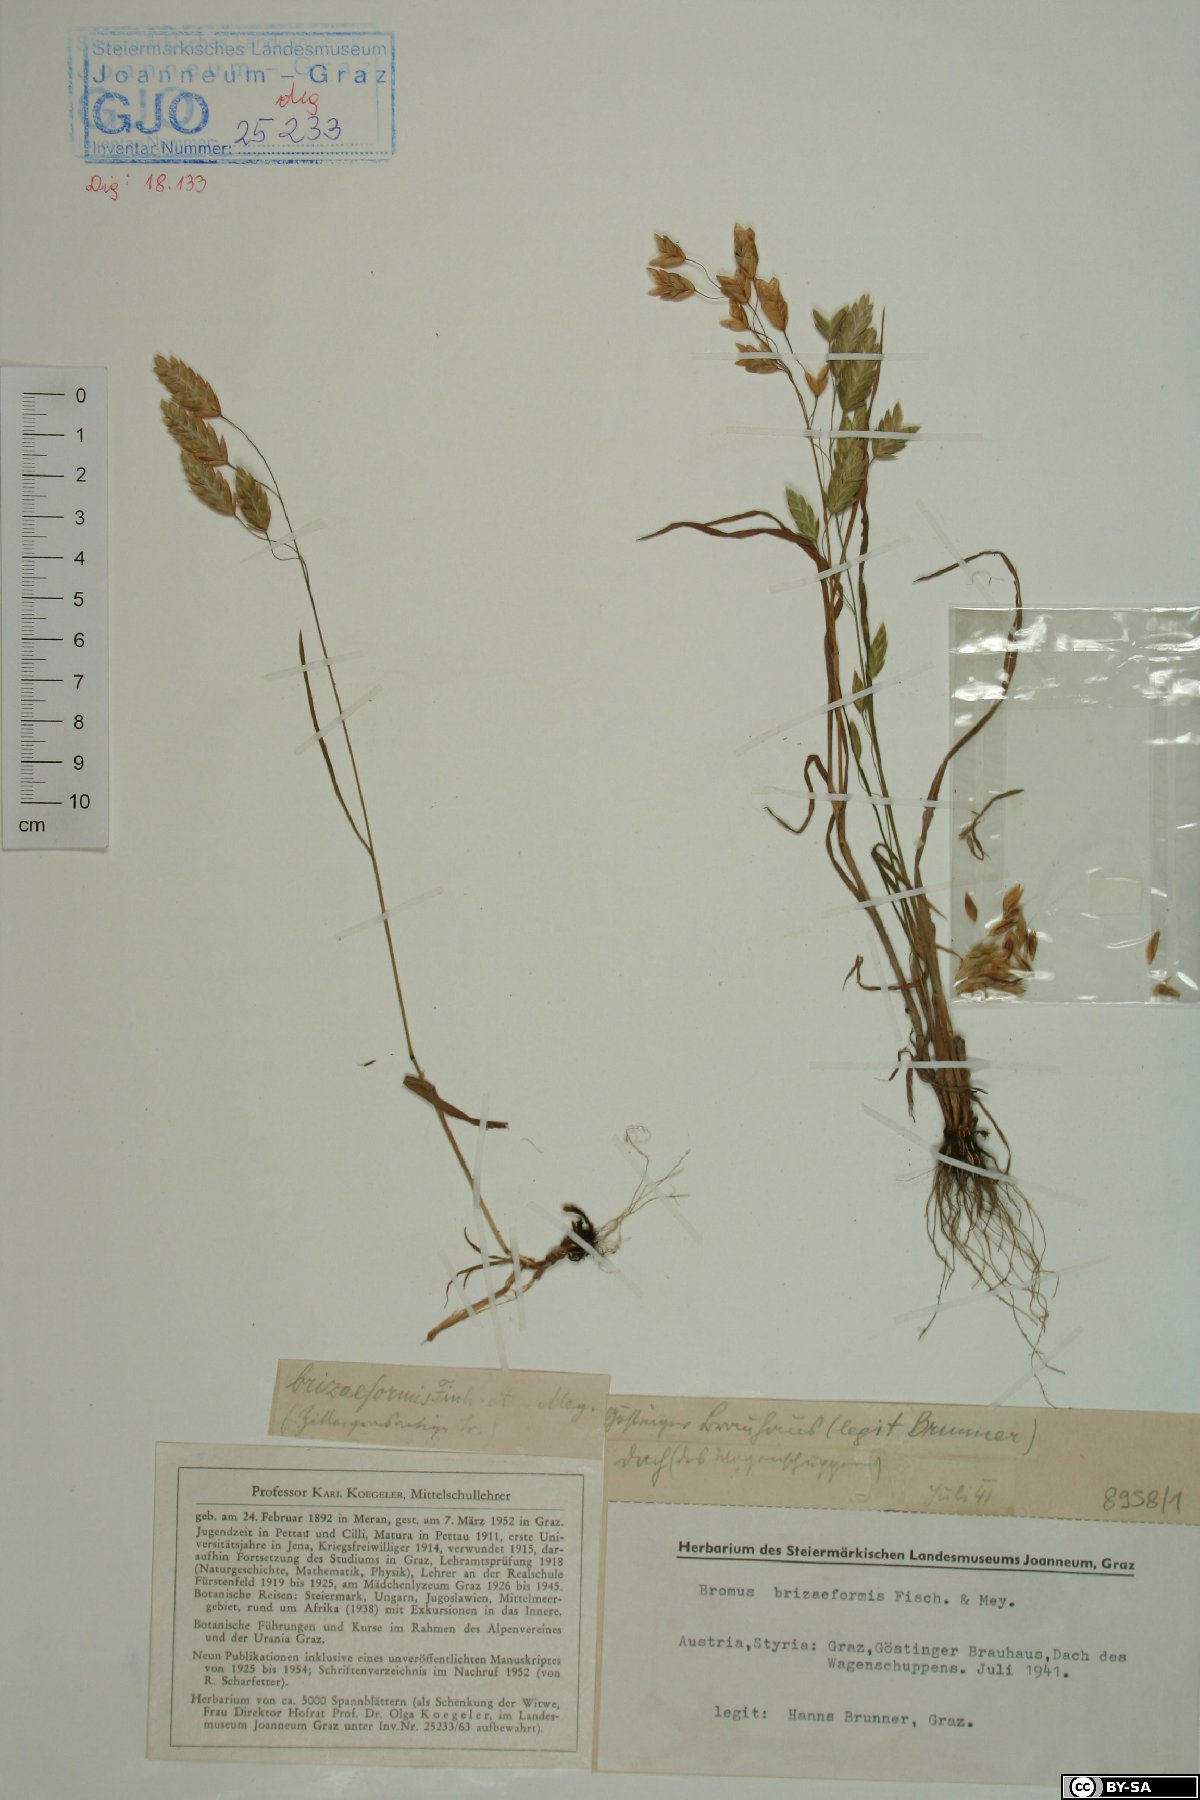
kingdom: Plantae
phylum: Tracheophyta
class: Liliopsida
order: Poales
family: Poaceae
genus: Bromus
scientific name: Bromus briziformis
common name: Rattlesnake brome
